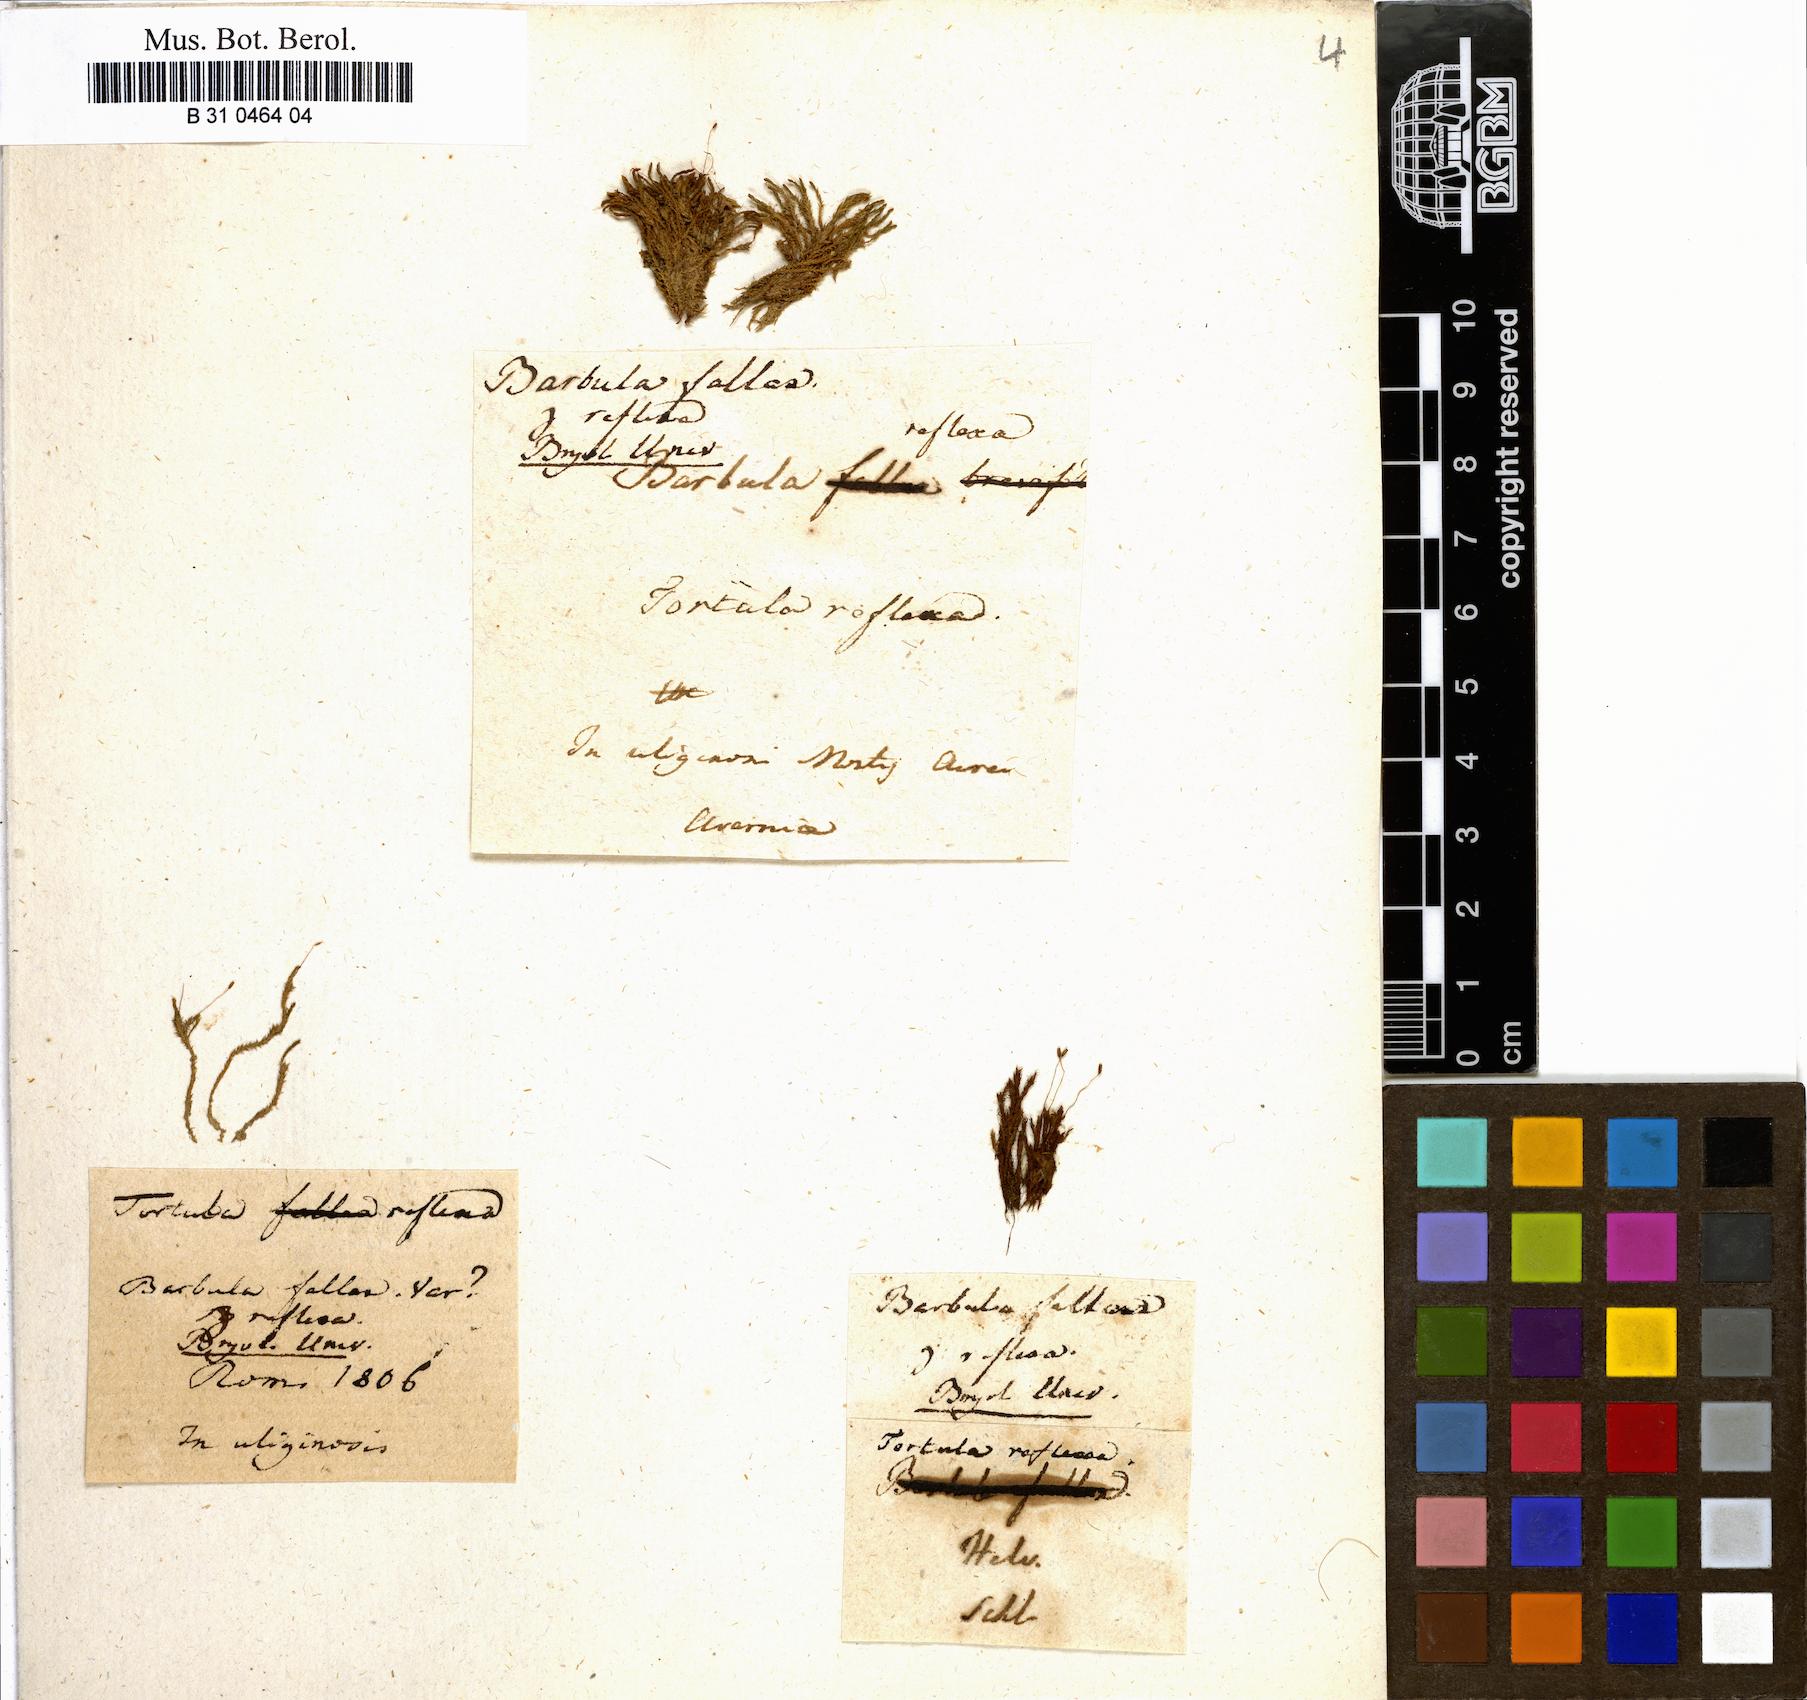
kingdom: Plantae
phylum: Bryophyta
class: Bryopsida
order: Pottiales
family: Pottiaceae
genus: Geheebia
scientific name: Geheebia fallax
